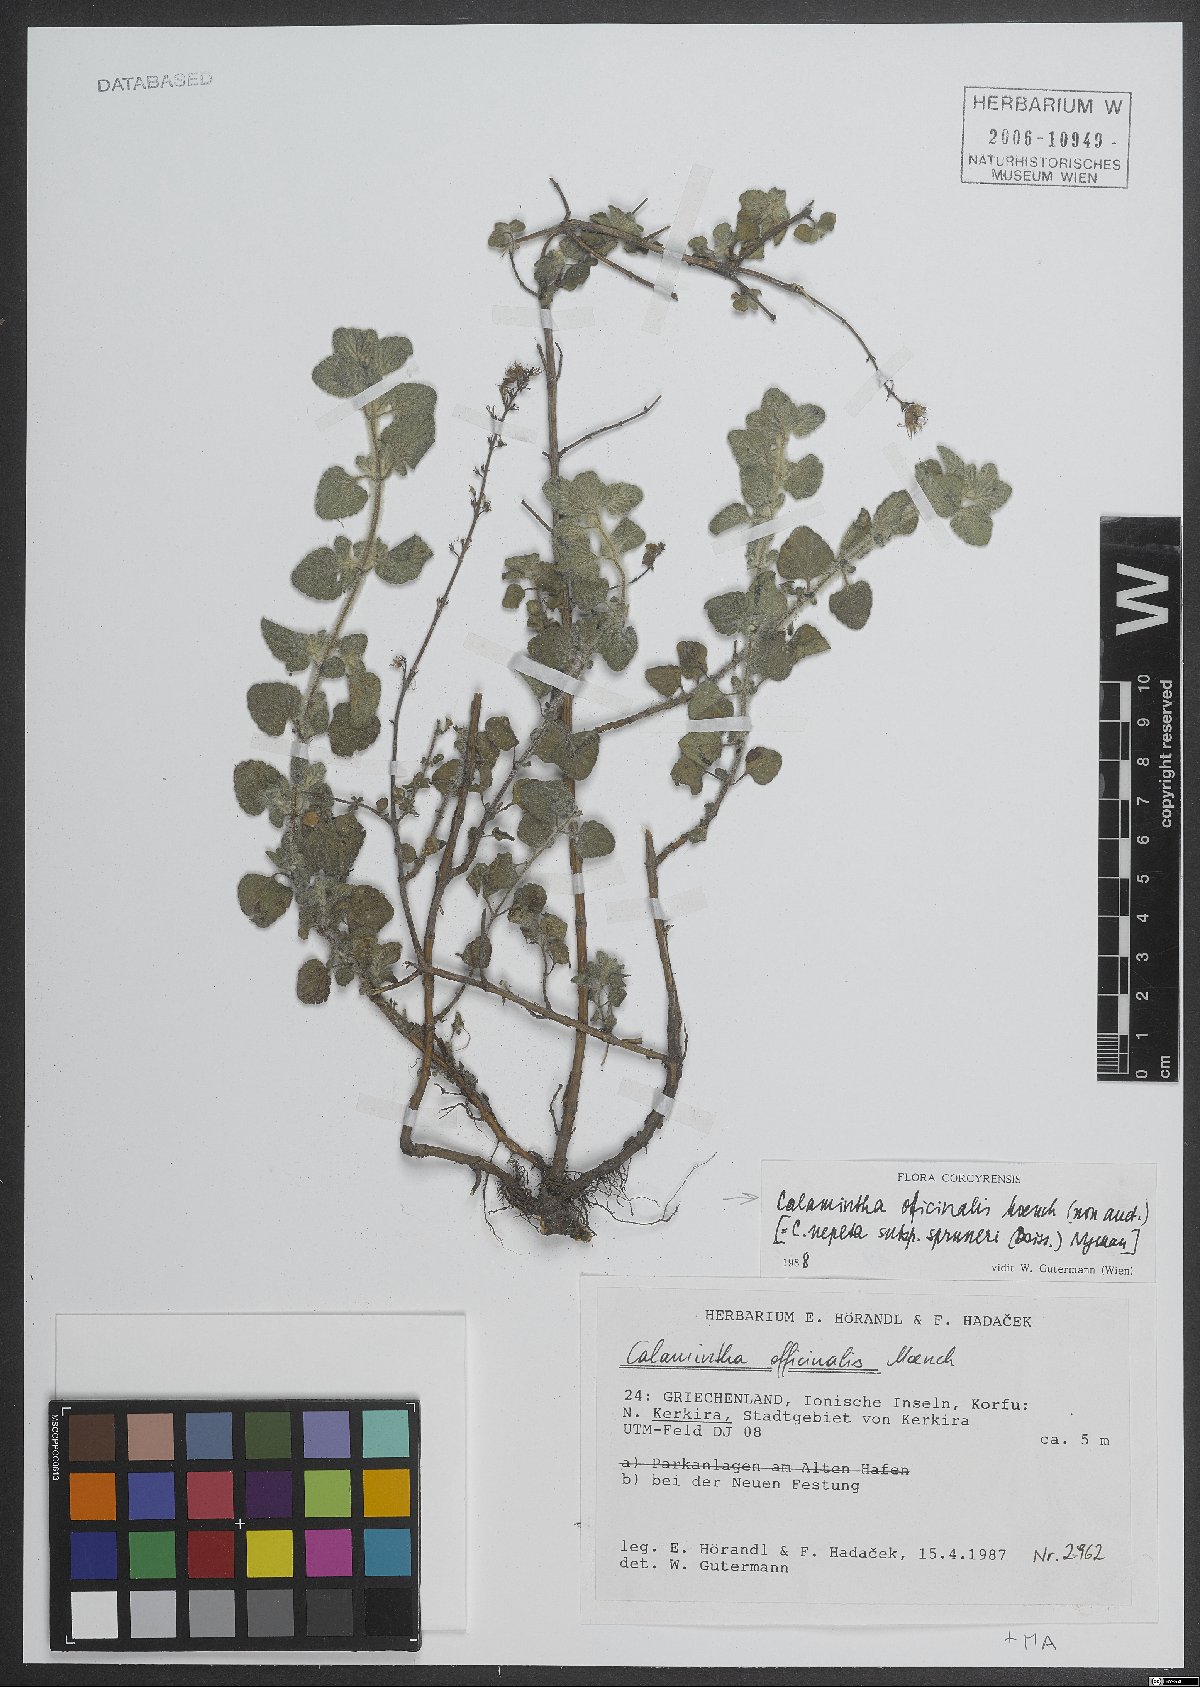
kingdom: Plantae
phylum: Tracheophyta
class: Magnoliopsida
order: Lamiales
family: Lamiaceae
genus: Clinopodium
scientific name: Clinopodium nepeta
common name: Lesser calamint
